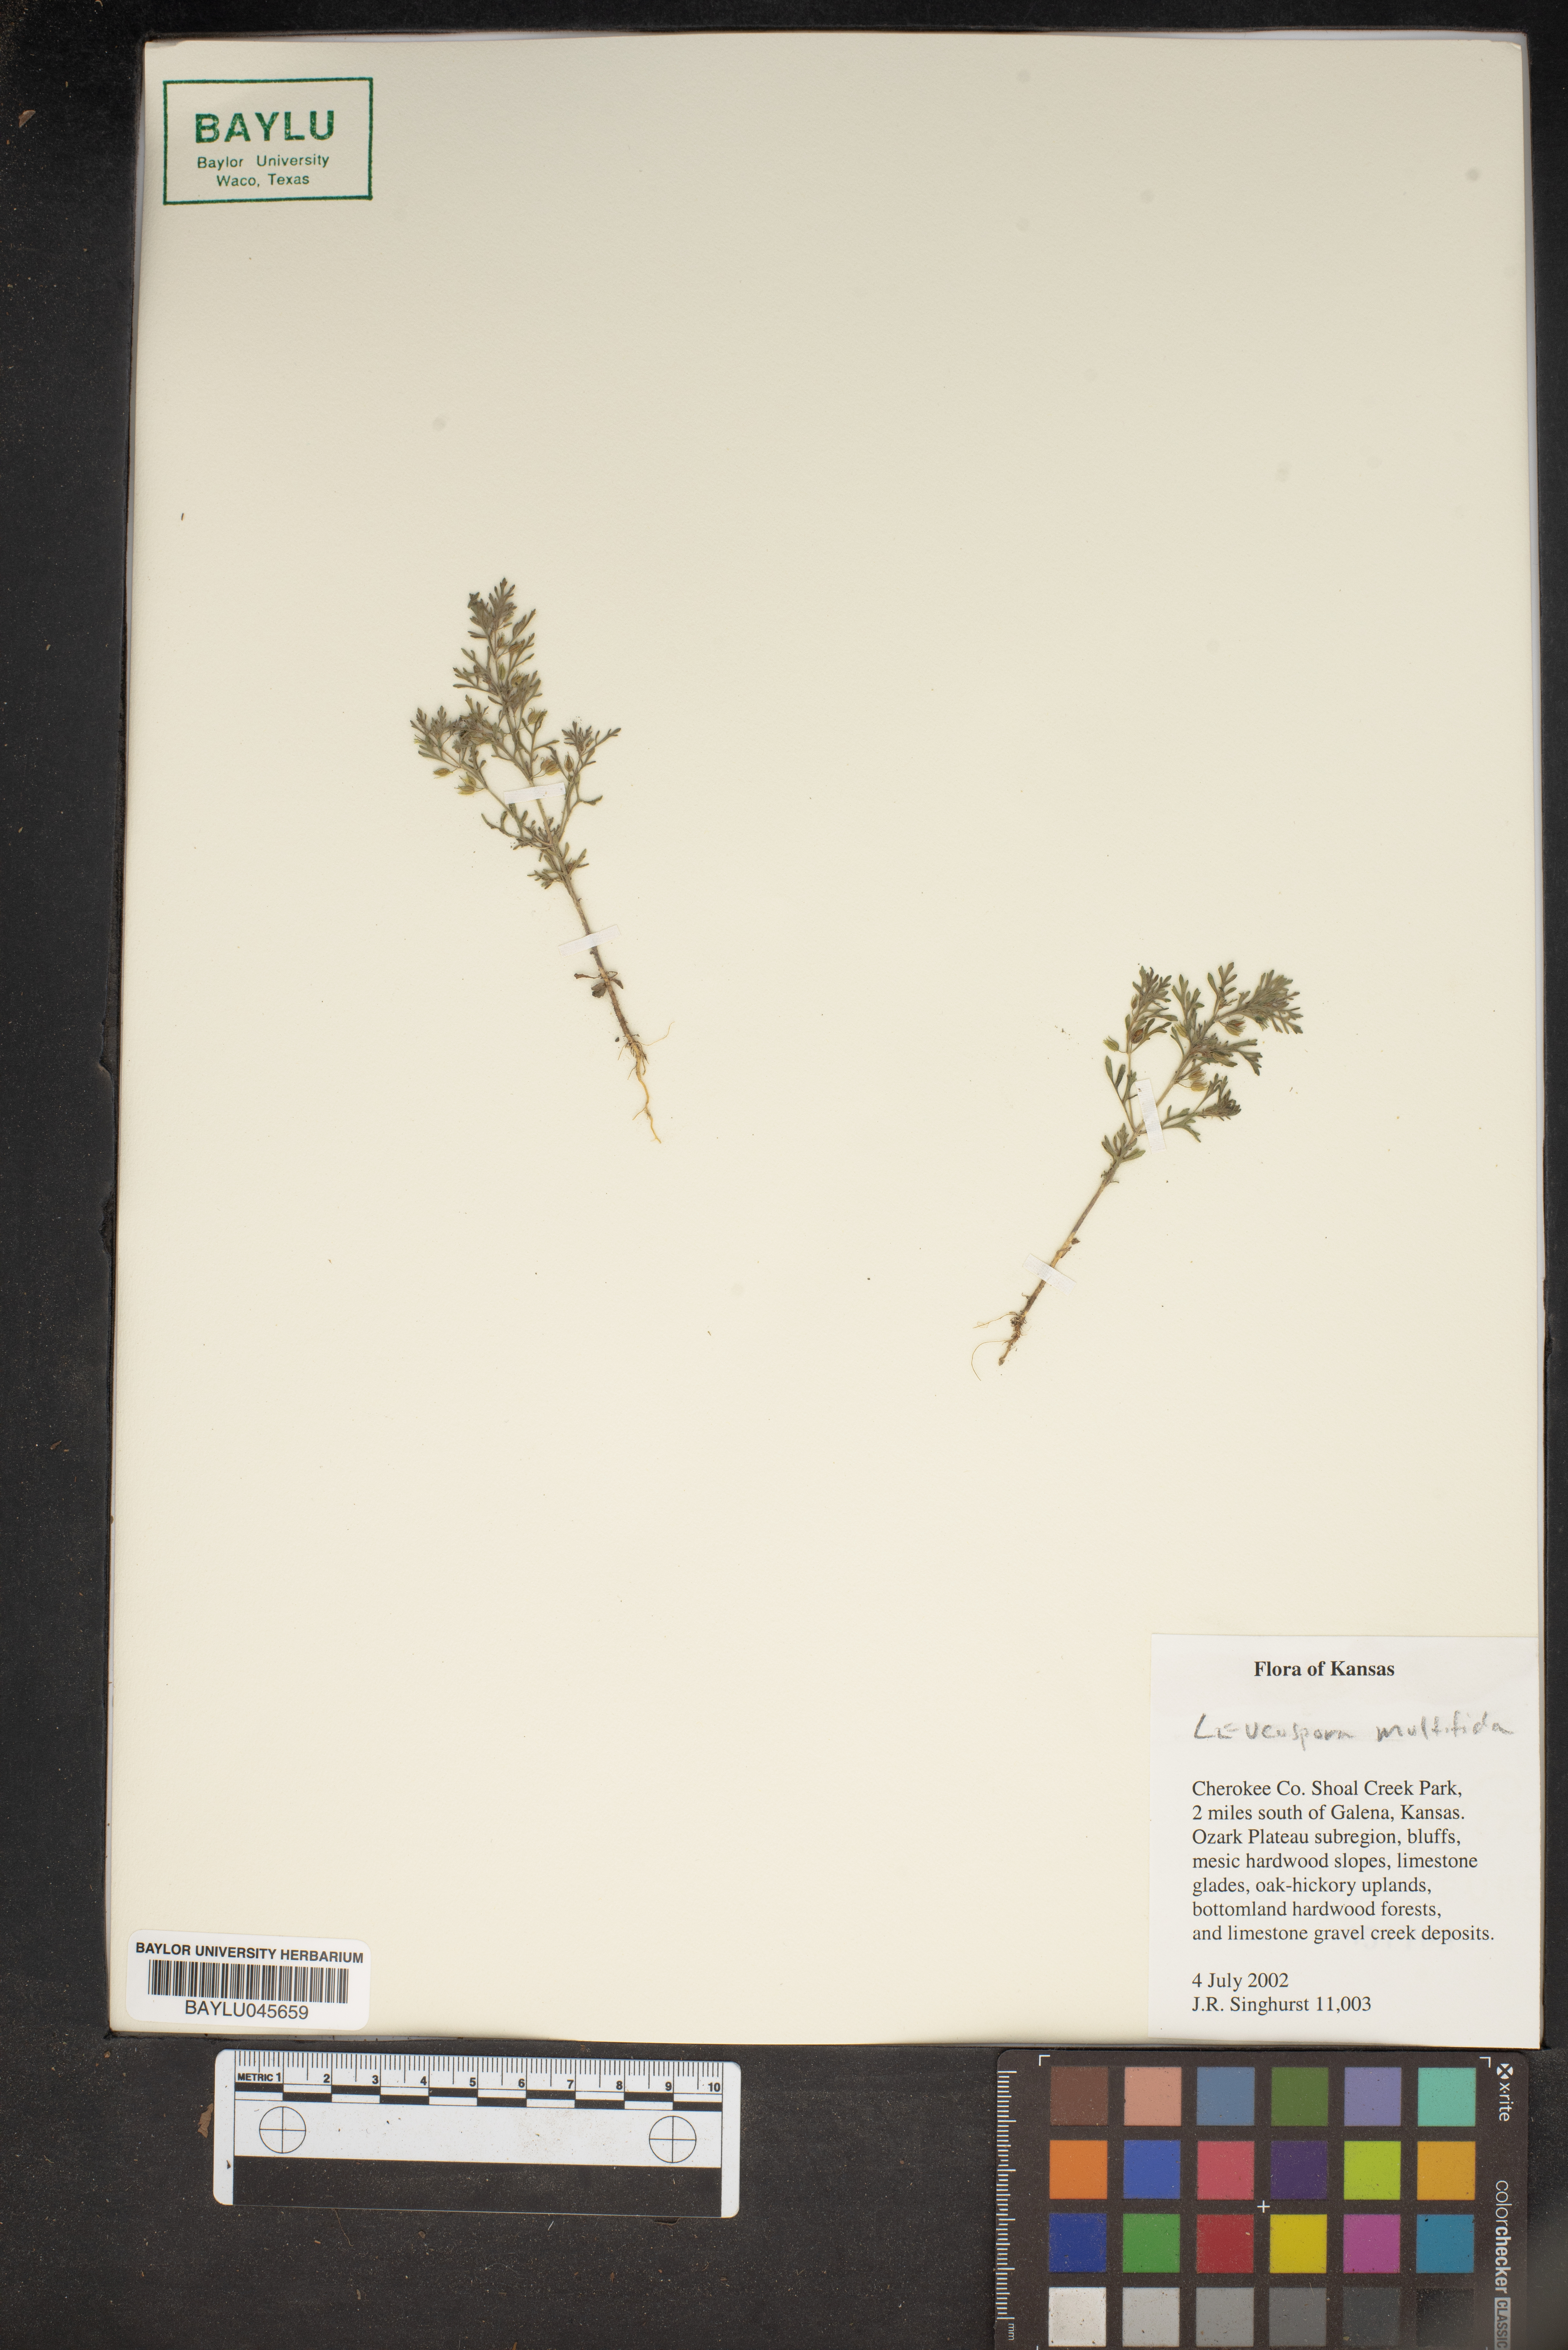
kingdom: Plantae
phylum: Tracheophyta
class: Magnoliopsida
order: Lamiales
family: Plantaginaceae
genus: Leucospora
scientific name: Leucospora multifida
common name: Narrow-leaf paleseed
